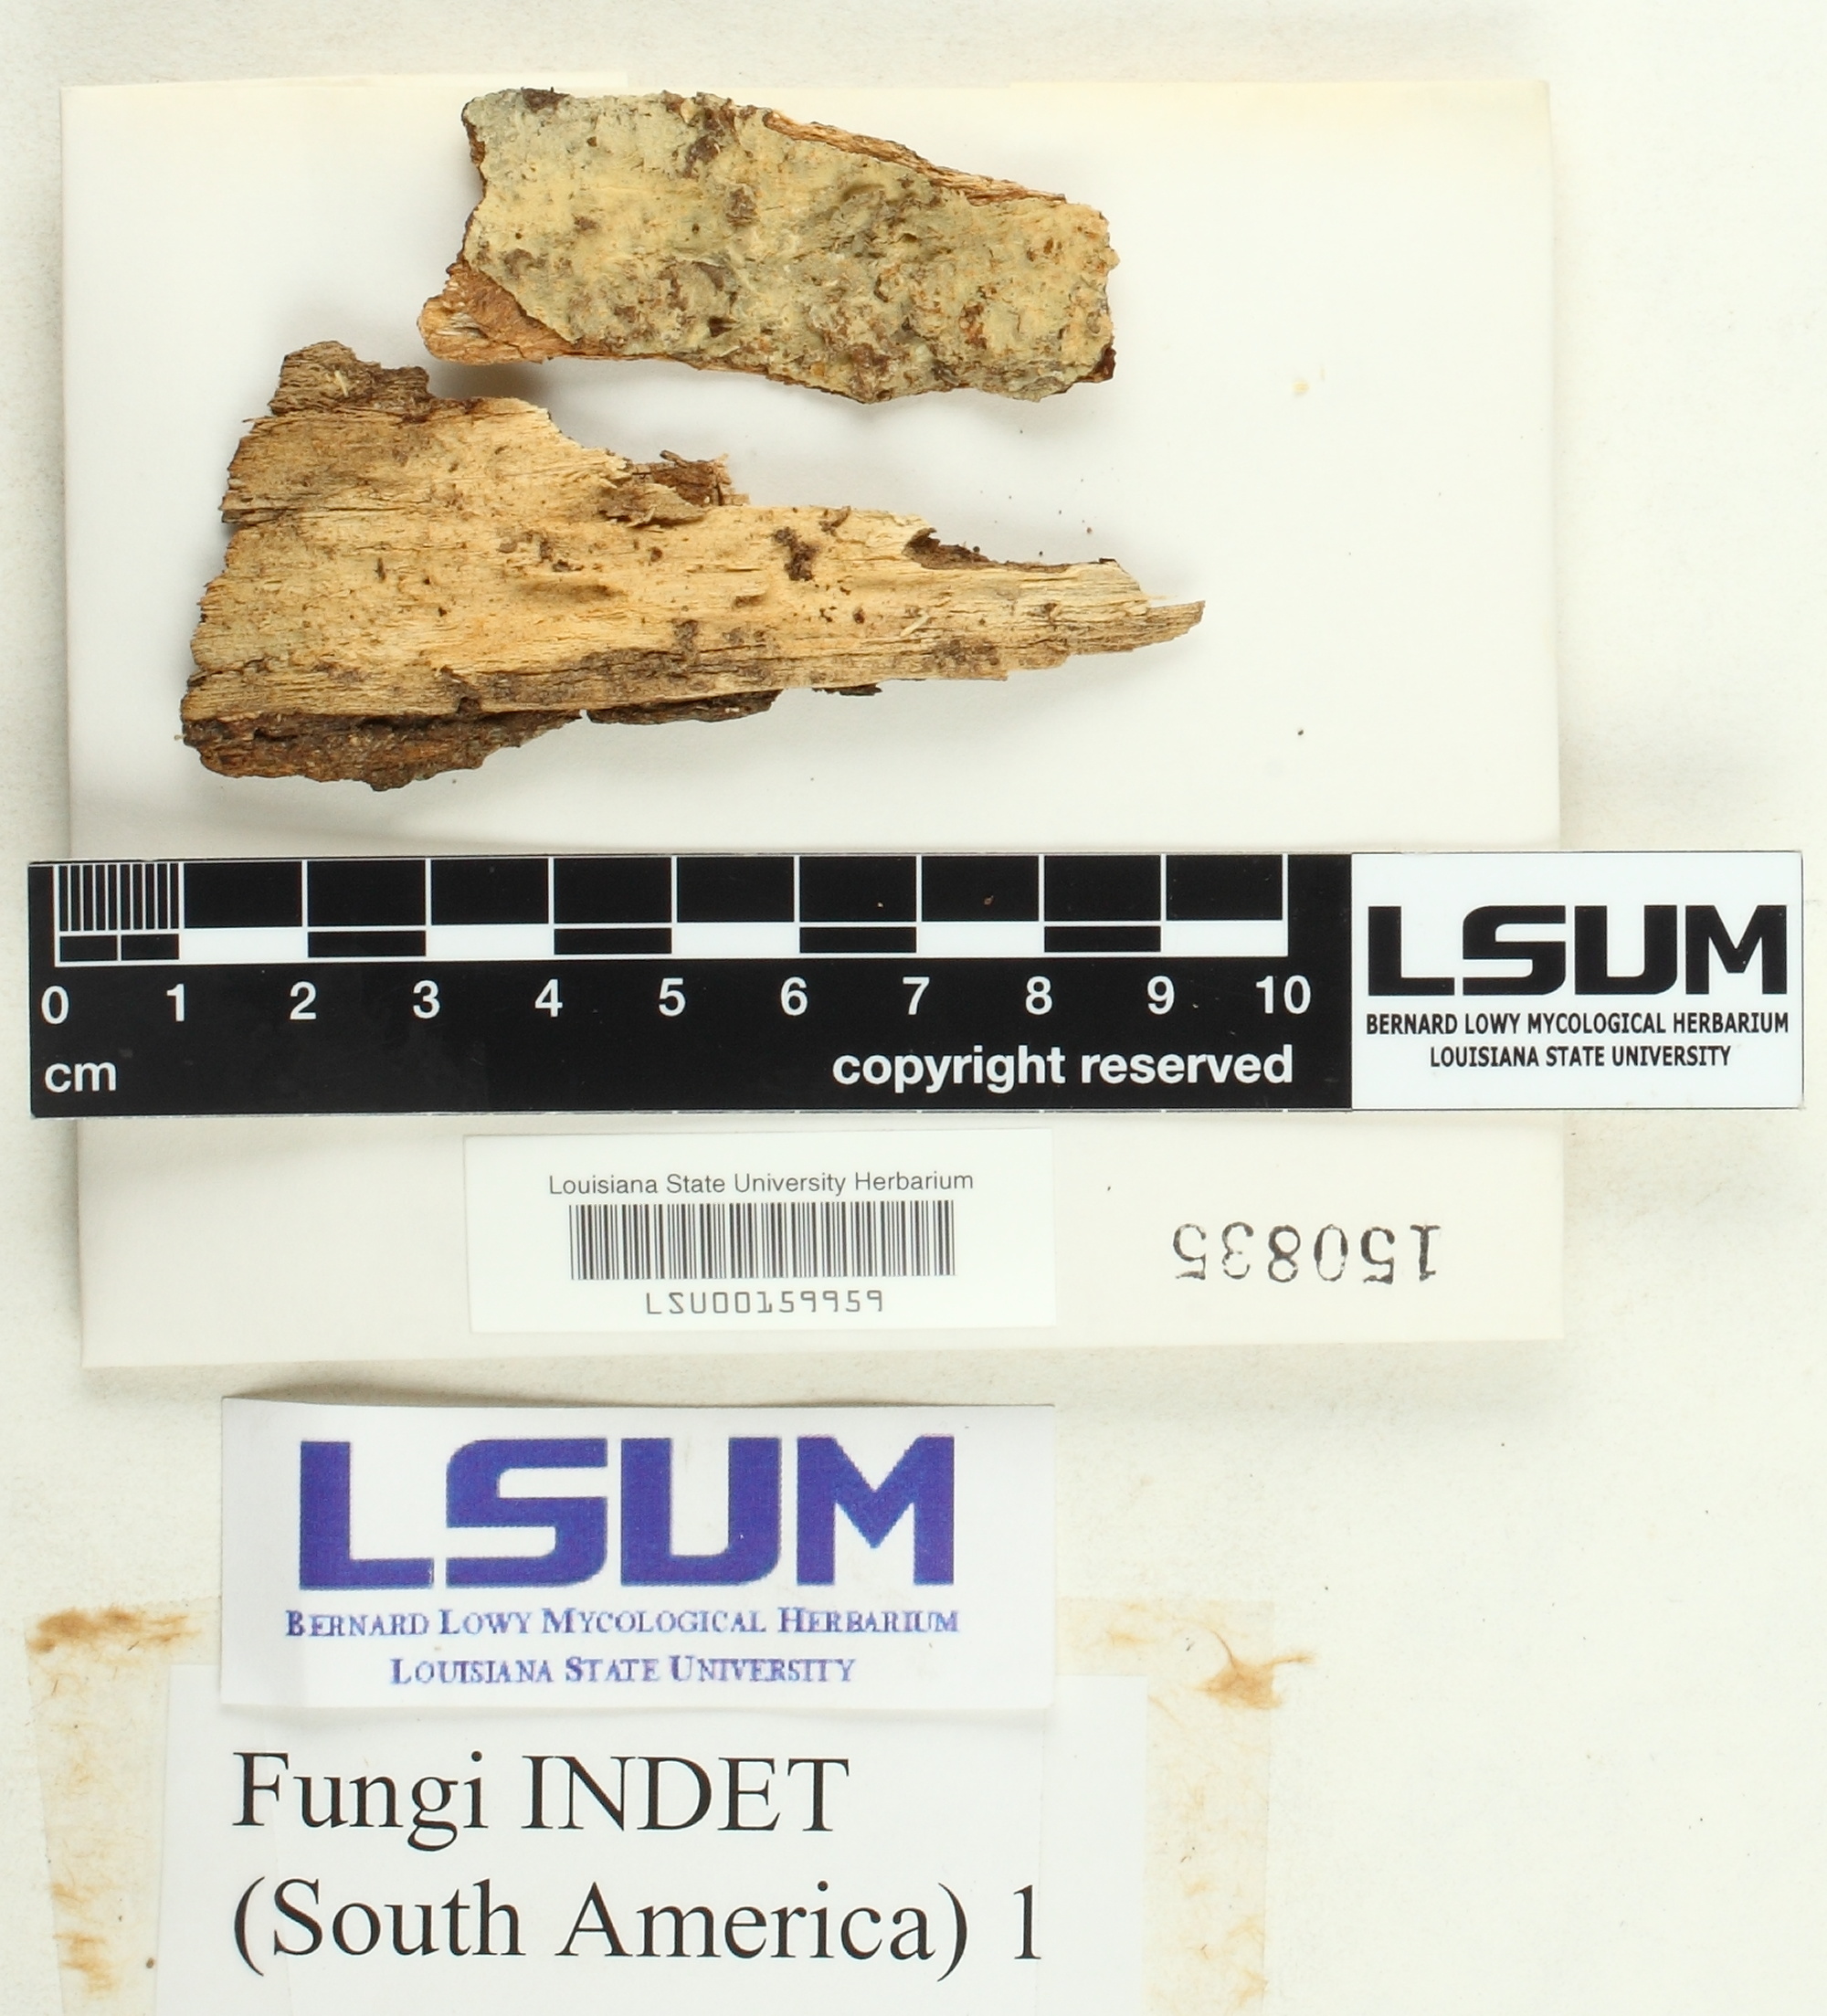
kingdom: Fungi
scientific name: Fungi
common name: Fungi
